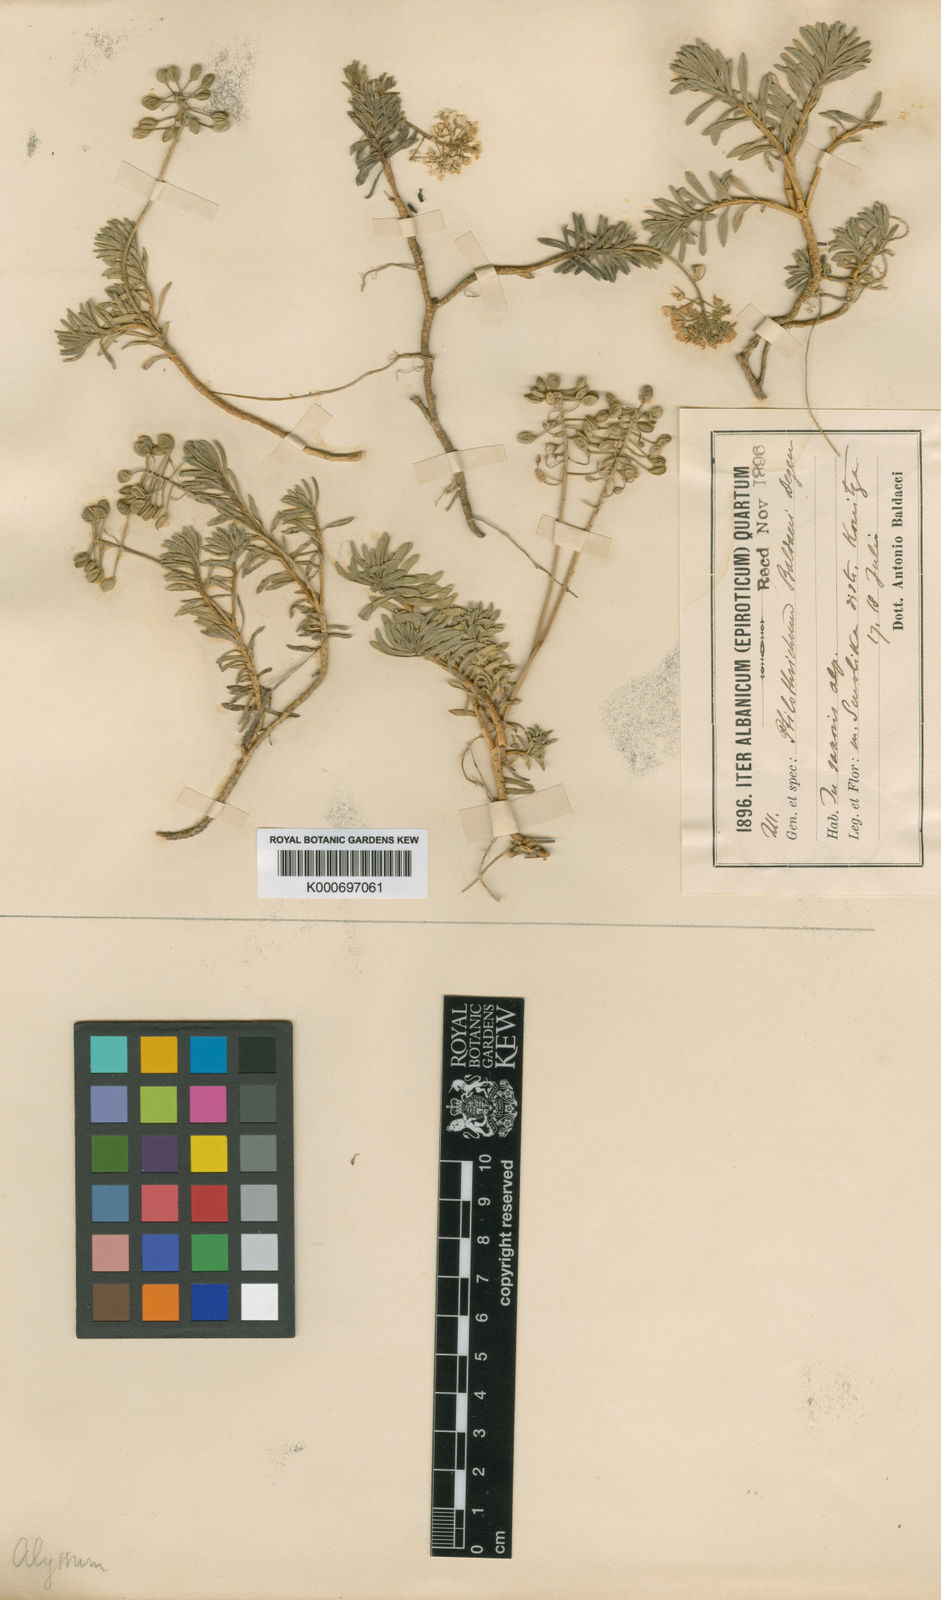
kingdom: Plantae
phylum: Tracheophyta
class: Magnoliopsida
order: Brassicales
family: Brassicaceae
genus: Bornmuellera
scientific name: Bornmuellera baldaccii
